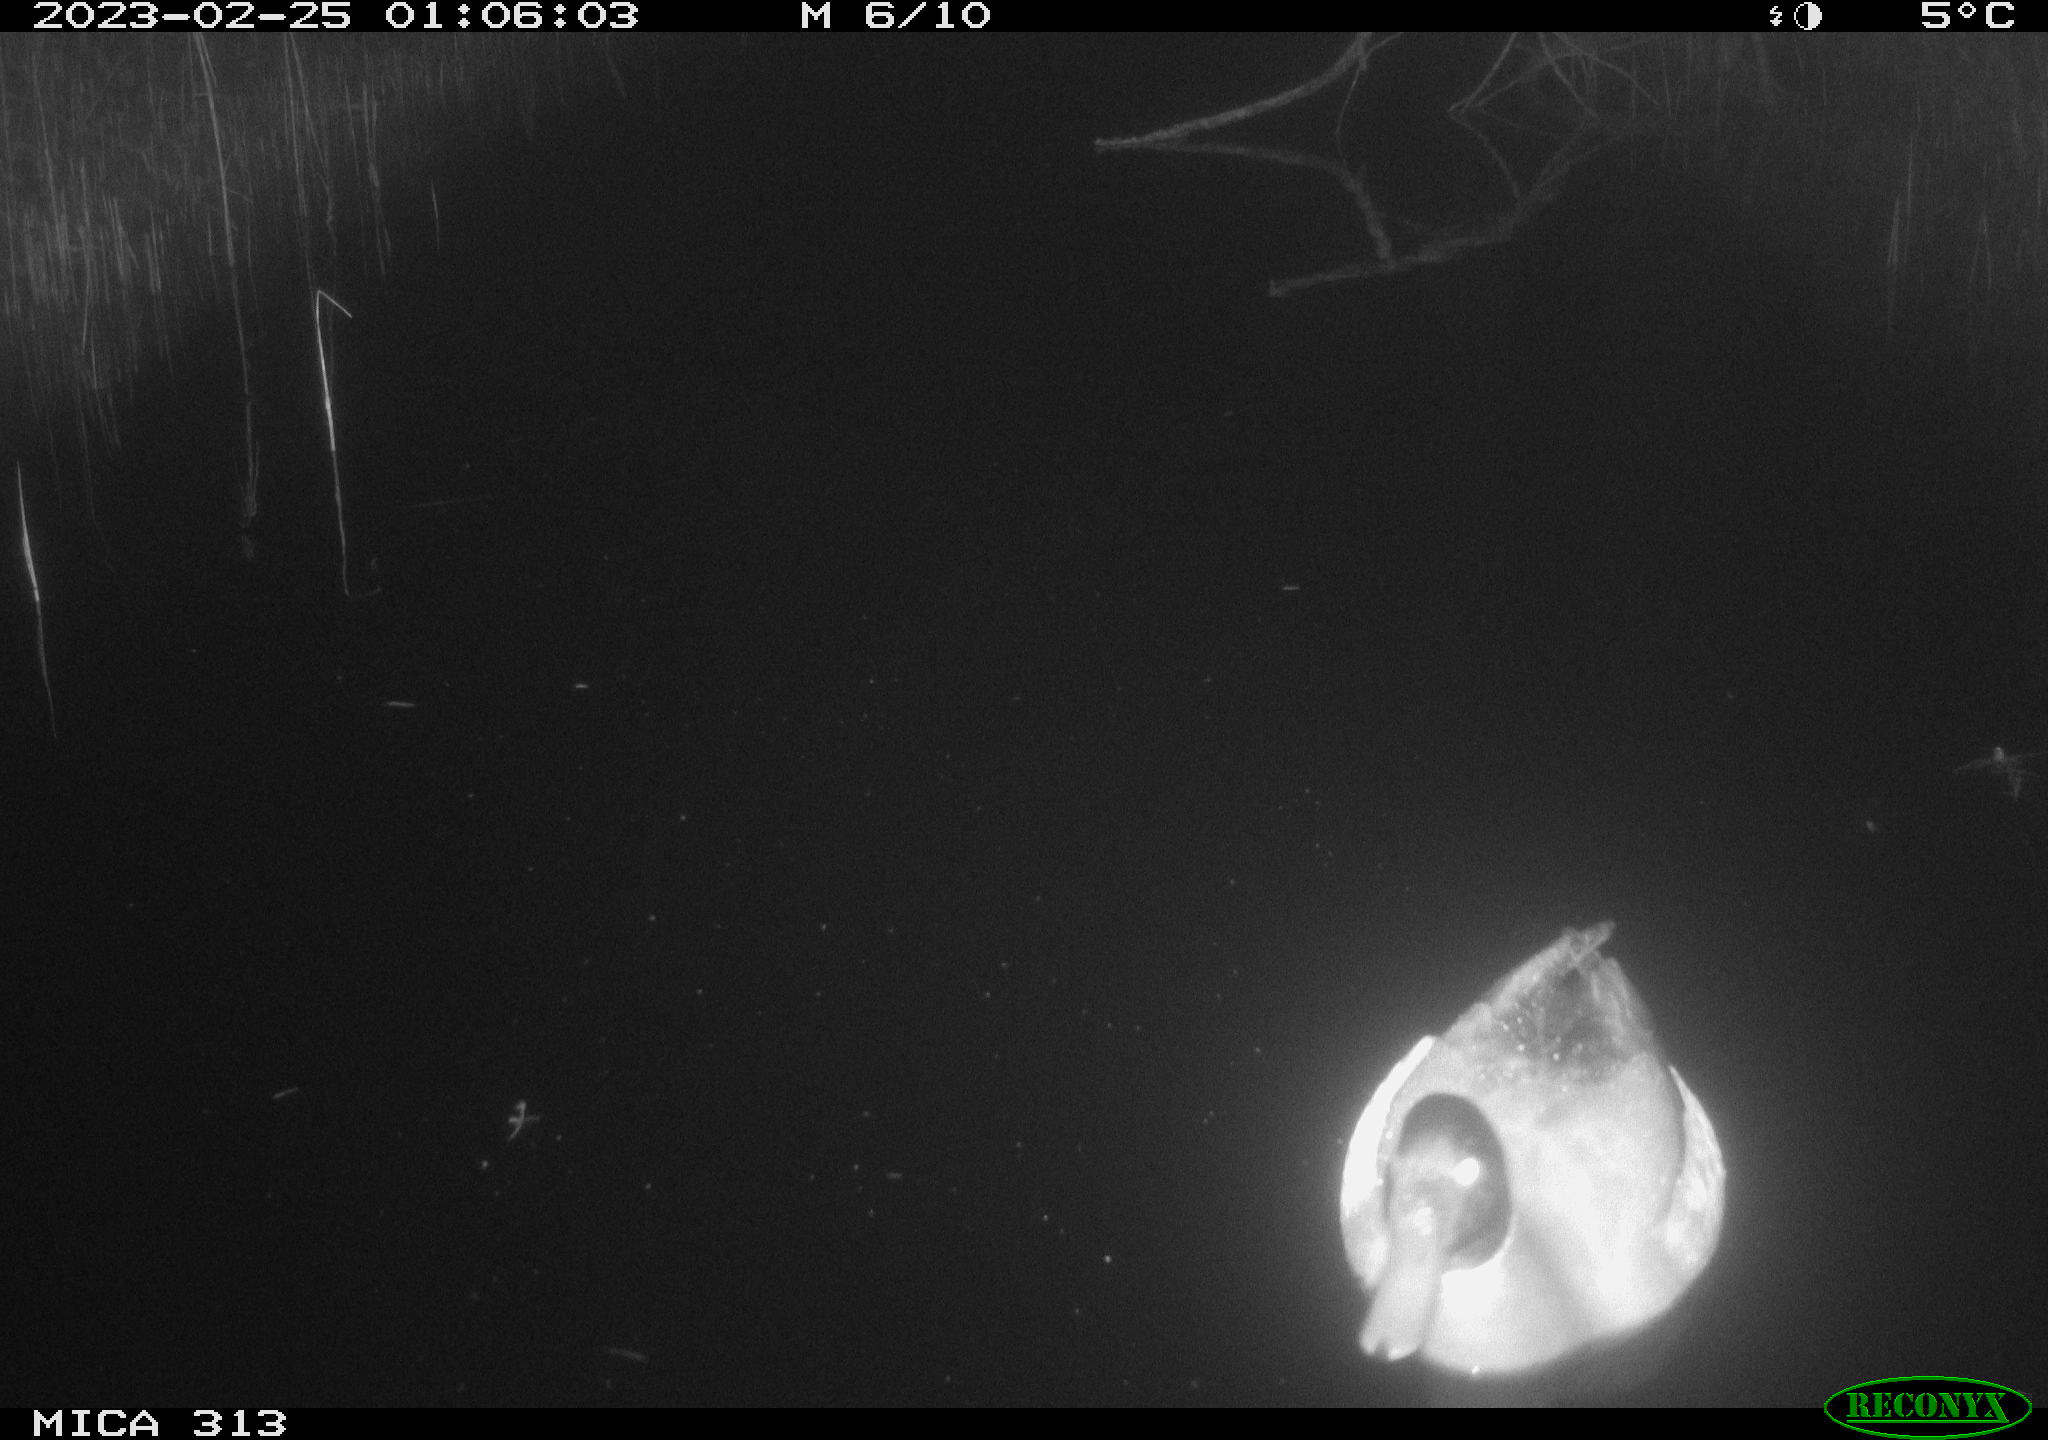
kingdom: Animalia
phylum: Chordata
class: Aves
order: Anseriformes
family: Anatidae
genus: Anas
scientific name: Anas
